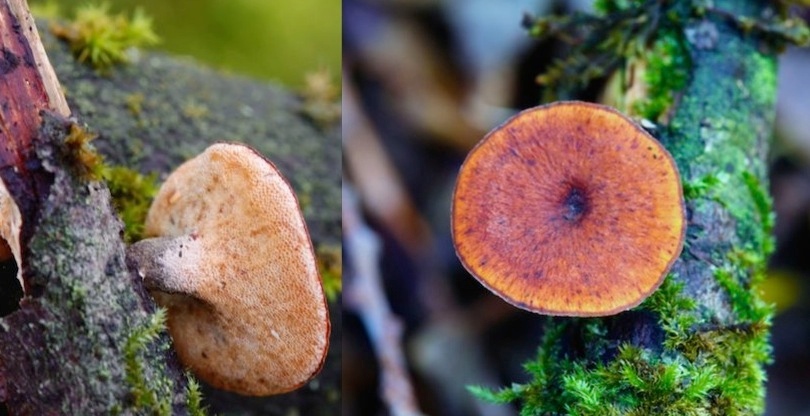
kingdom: Fungi
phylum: Basidiomycota
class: Agaricomycetes
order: Polyporales
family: Polyporaceae
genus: Cerioporus
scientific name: Cerioporus varius
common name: foranderlig stilkporesvamp
